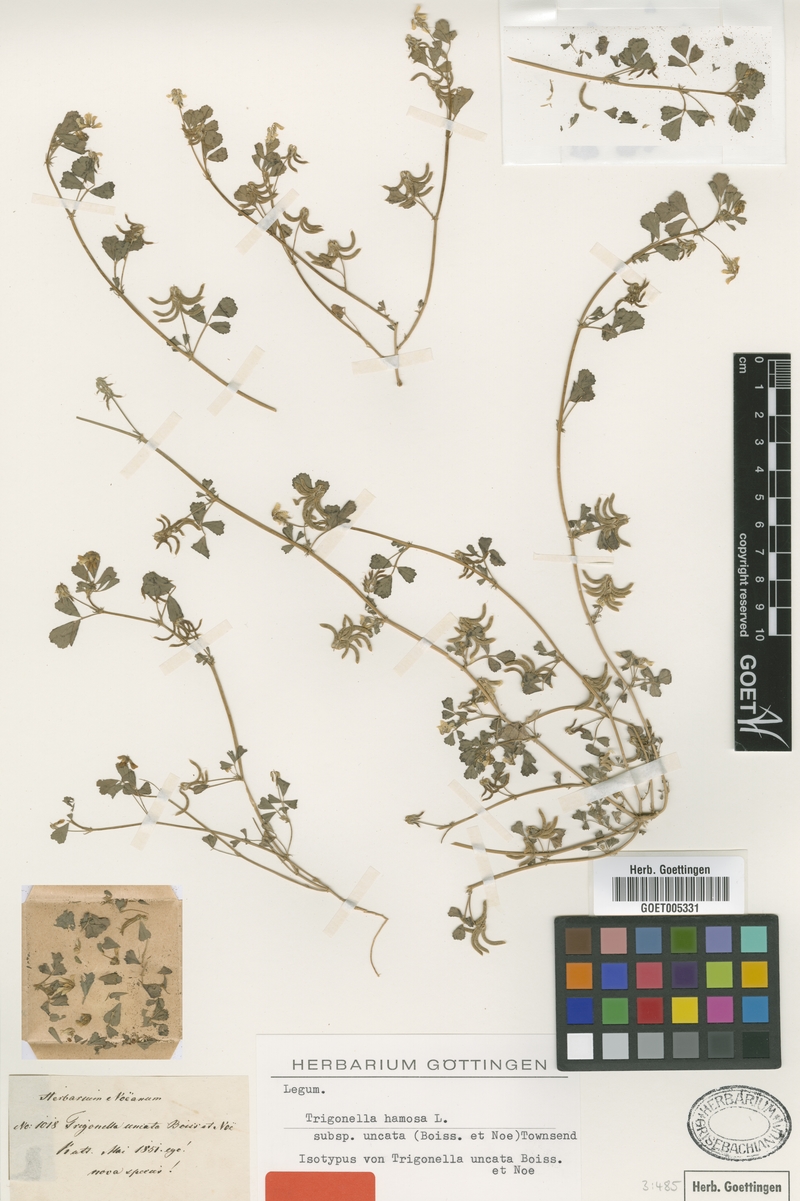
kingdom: Plantae
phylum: Tracheophyta
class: Magnoliopsida
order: Fabales
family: Fabaceae
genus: Trigonella
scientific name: Trigonella glabra
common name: Egyptian fenugreek
